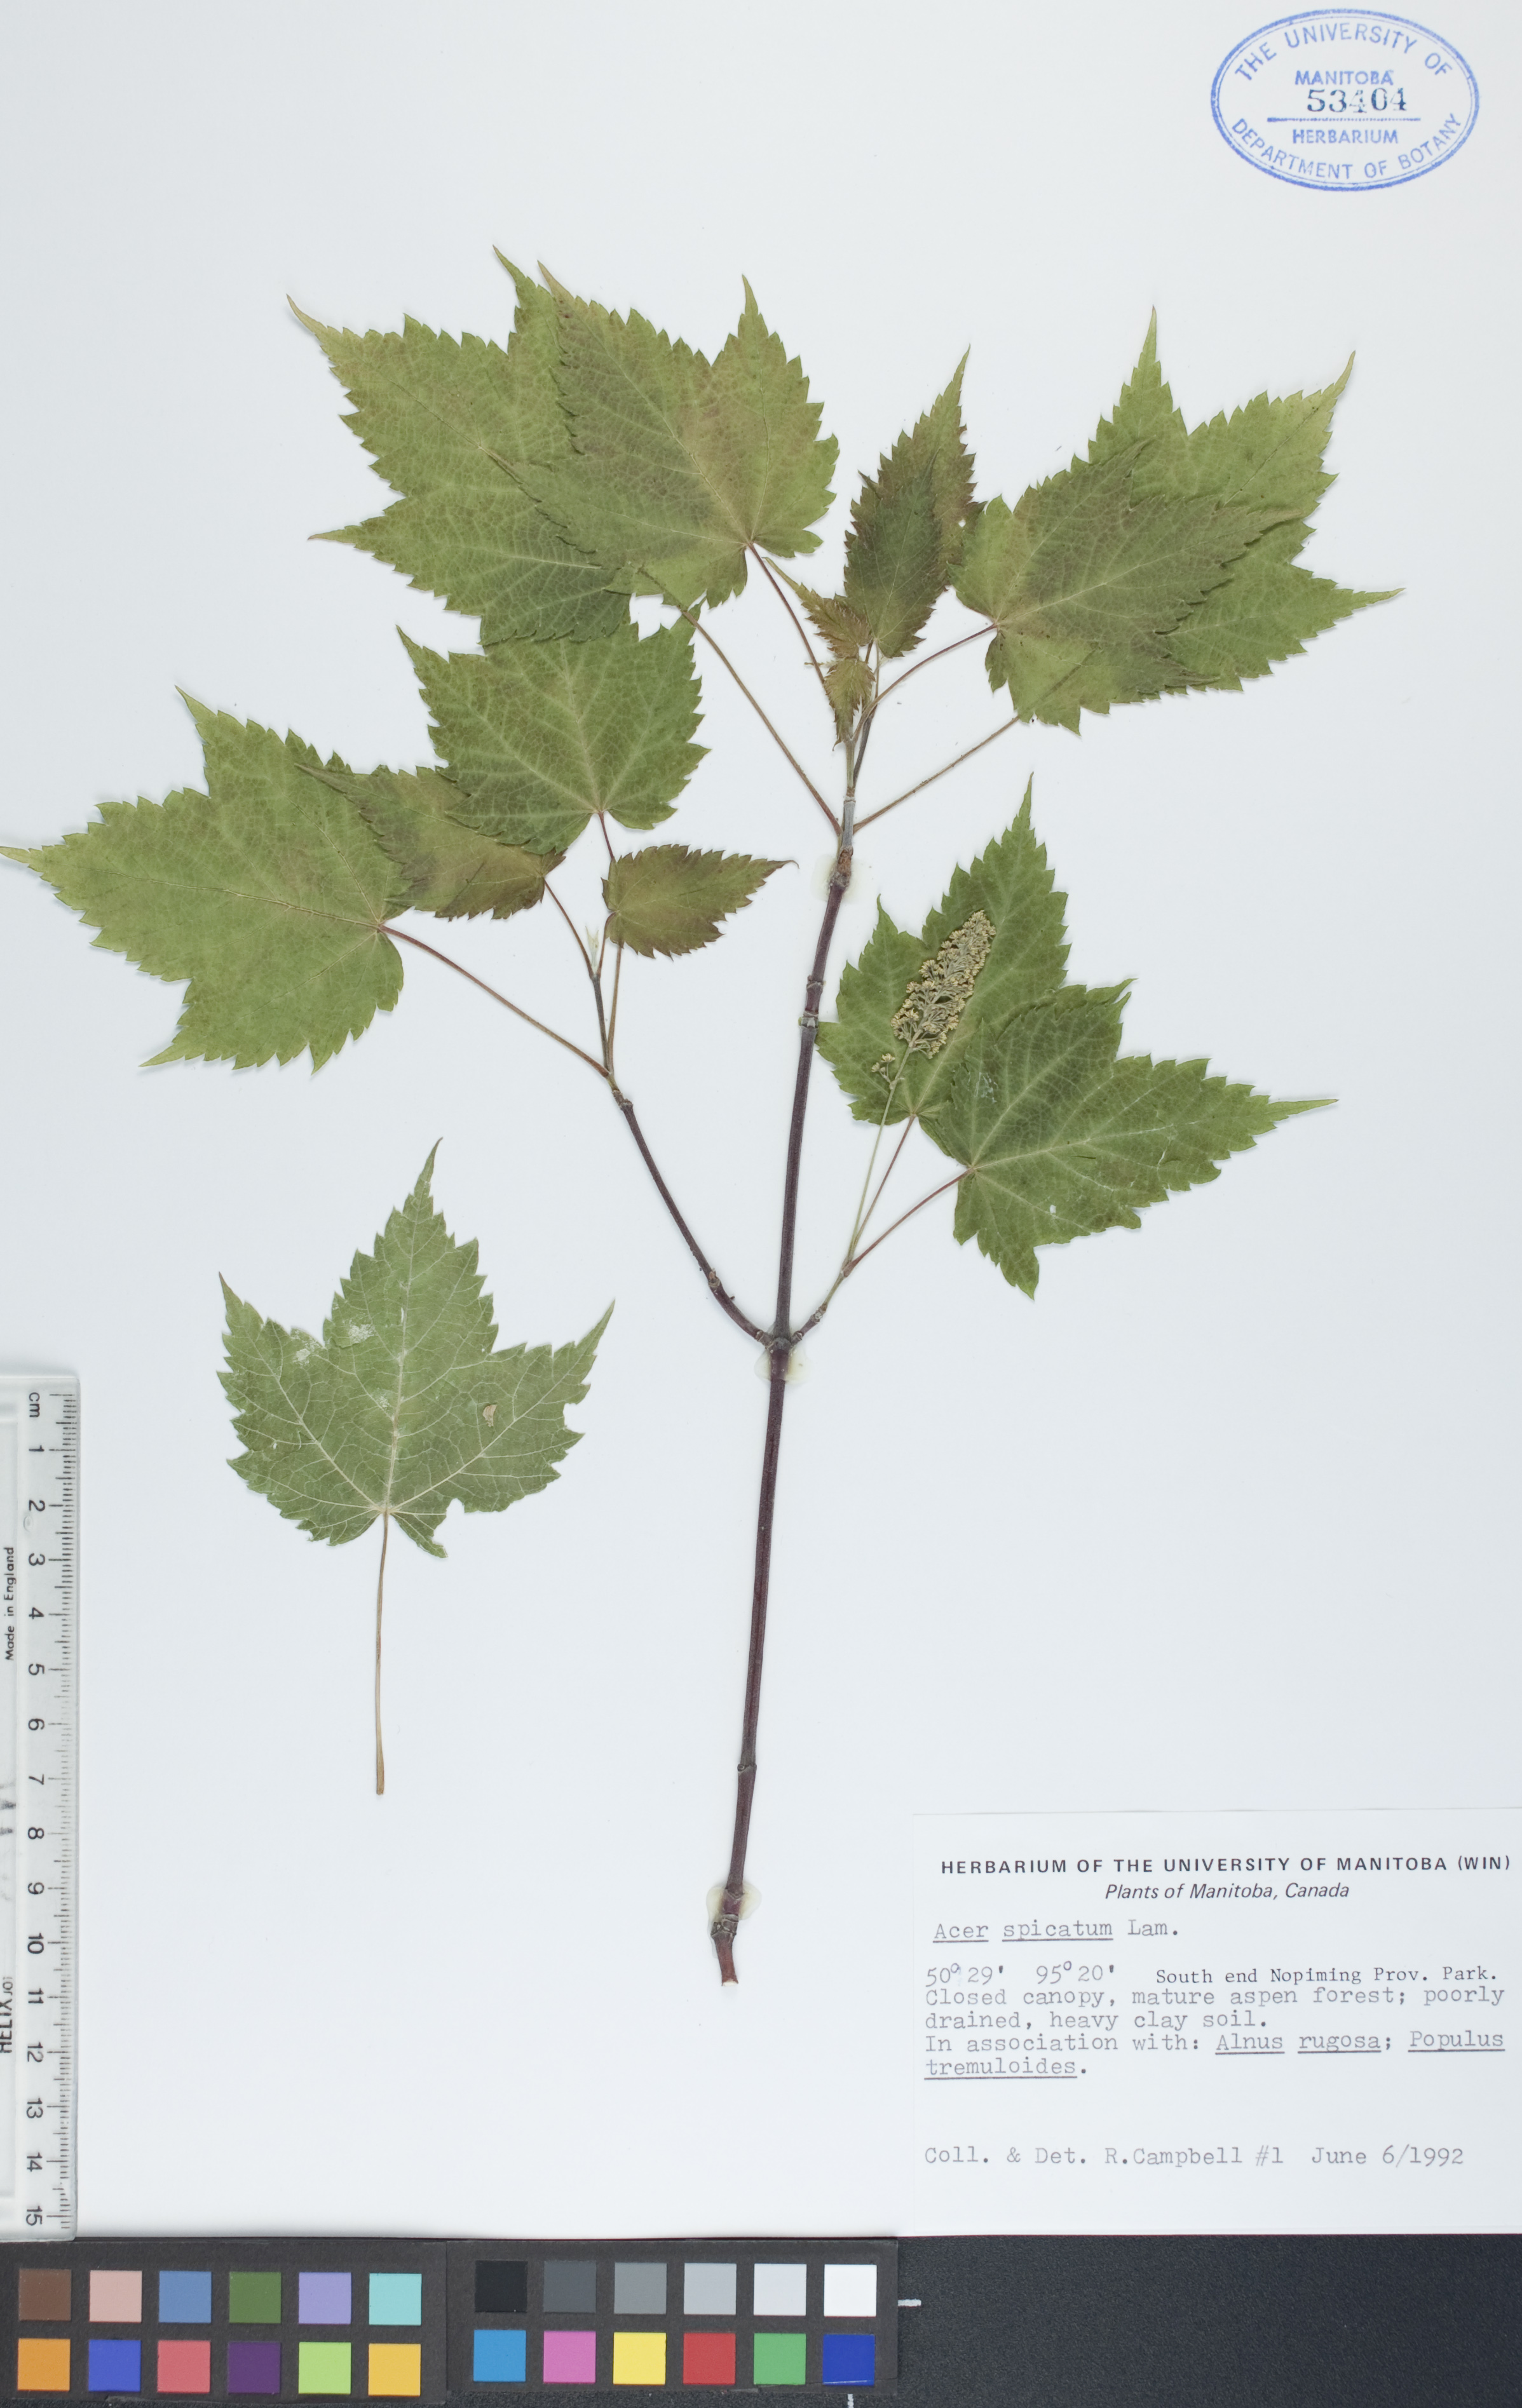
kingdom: Plantae
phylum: Tracheophyta
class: Magnoliopsida
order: Sapindales
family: Sapindaceae
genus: Acer
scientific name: Acer spicatum
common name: Mountain maple
